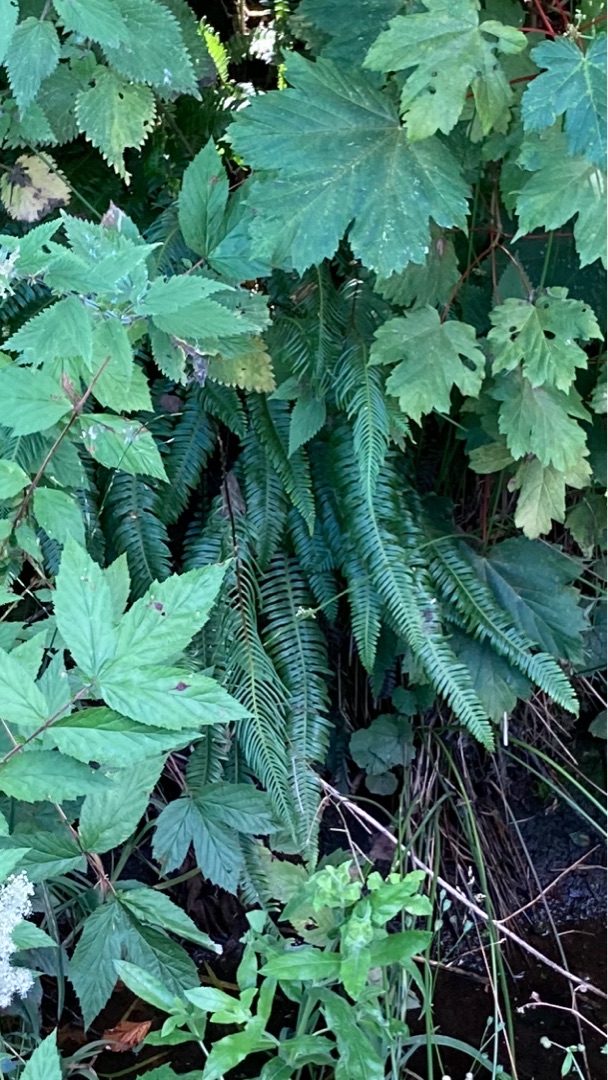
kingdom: Plantae
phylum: Tracheophyta
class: Polypodiopsida
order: Polypodiales
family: Blechnaceae
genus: Struthiopteris
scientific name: Struthiopteris spicant
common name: Kambregne
